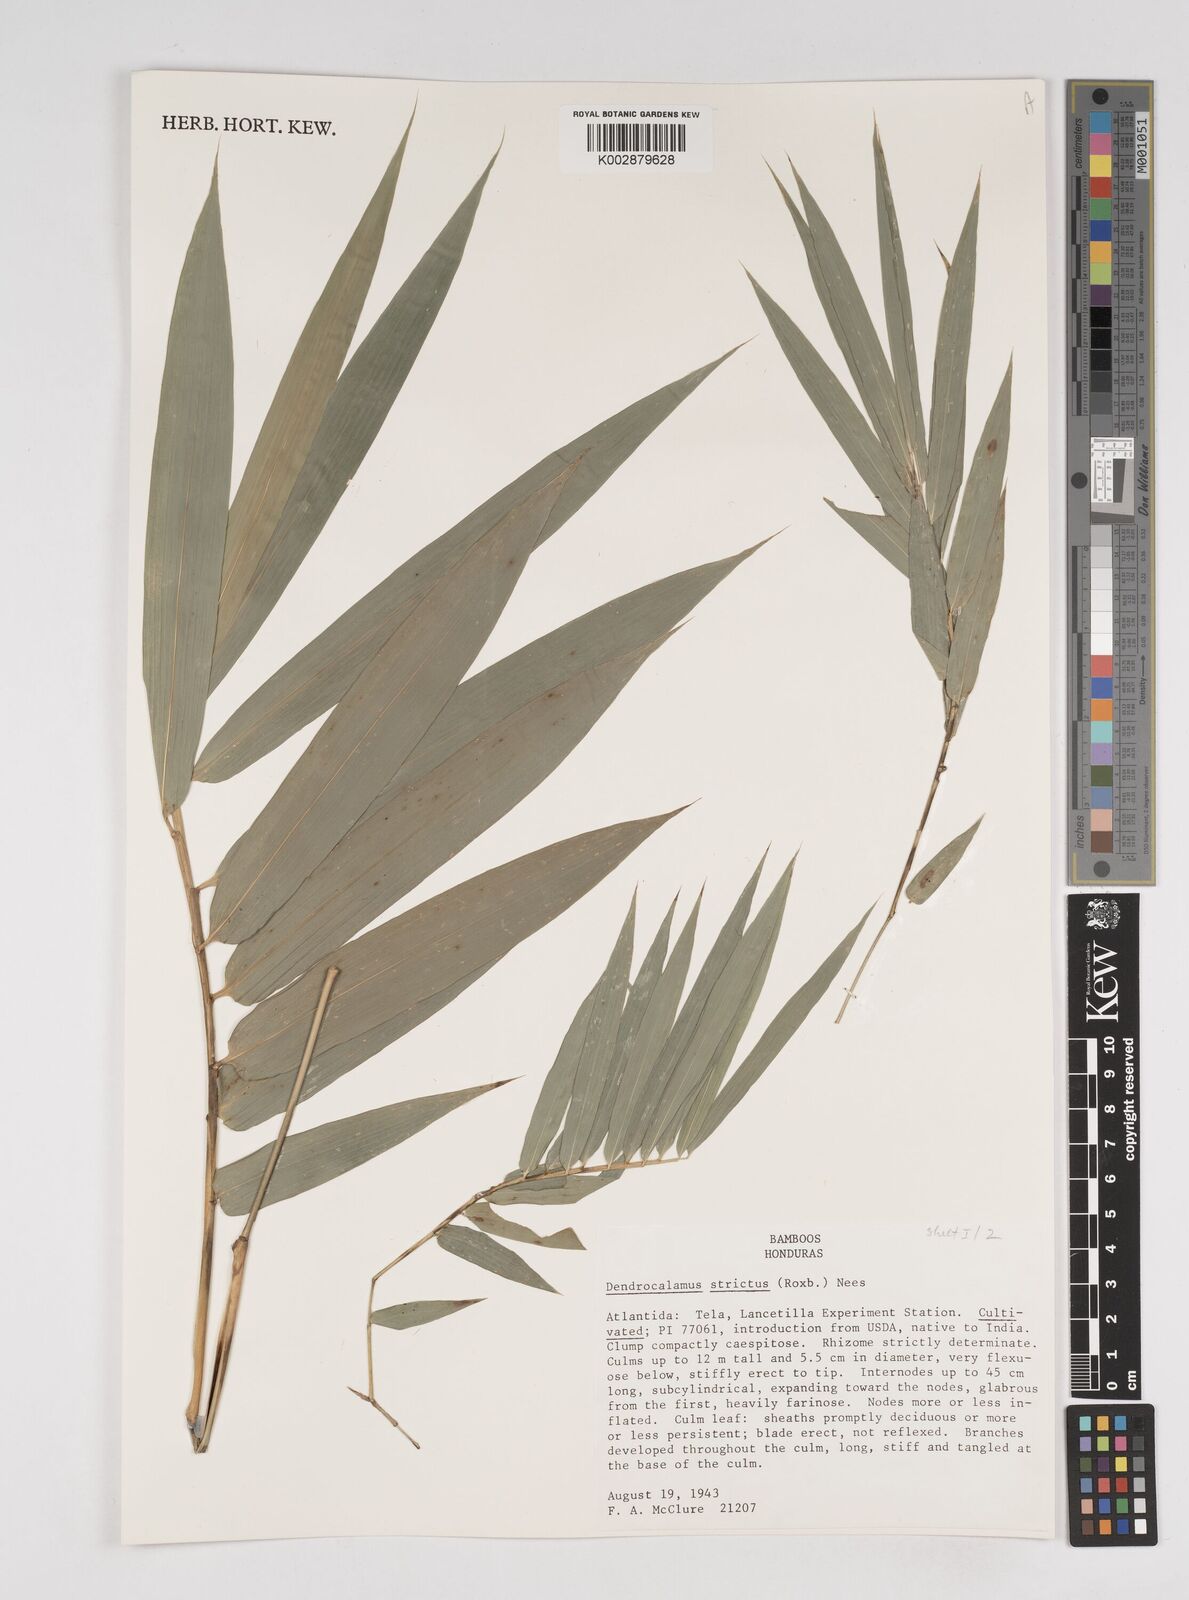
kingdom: Plantae
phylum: Tracheophyta
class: Liliopsida
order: Poales
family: Poaceae
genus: Dendrocalamus
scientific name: Dendrocalamus strictus
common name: Male bamboo
